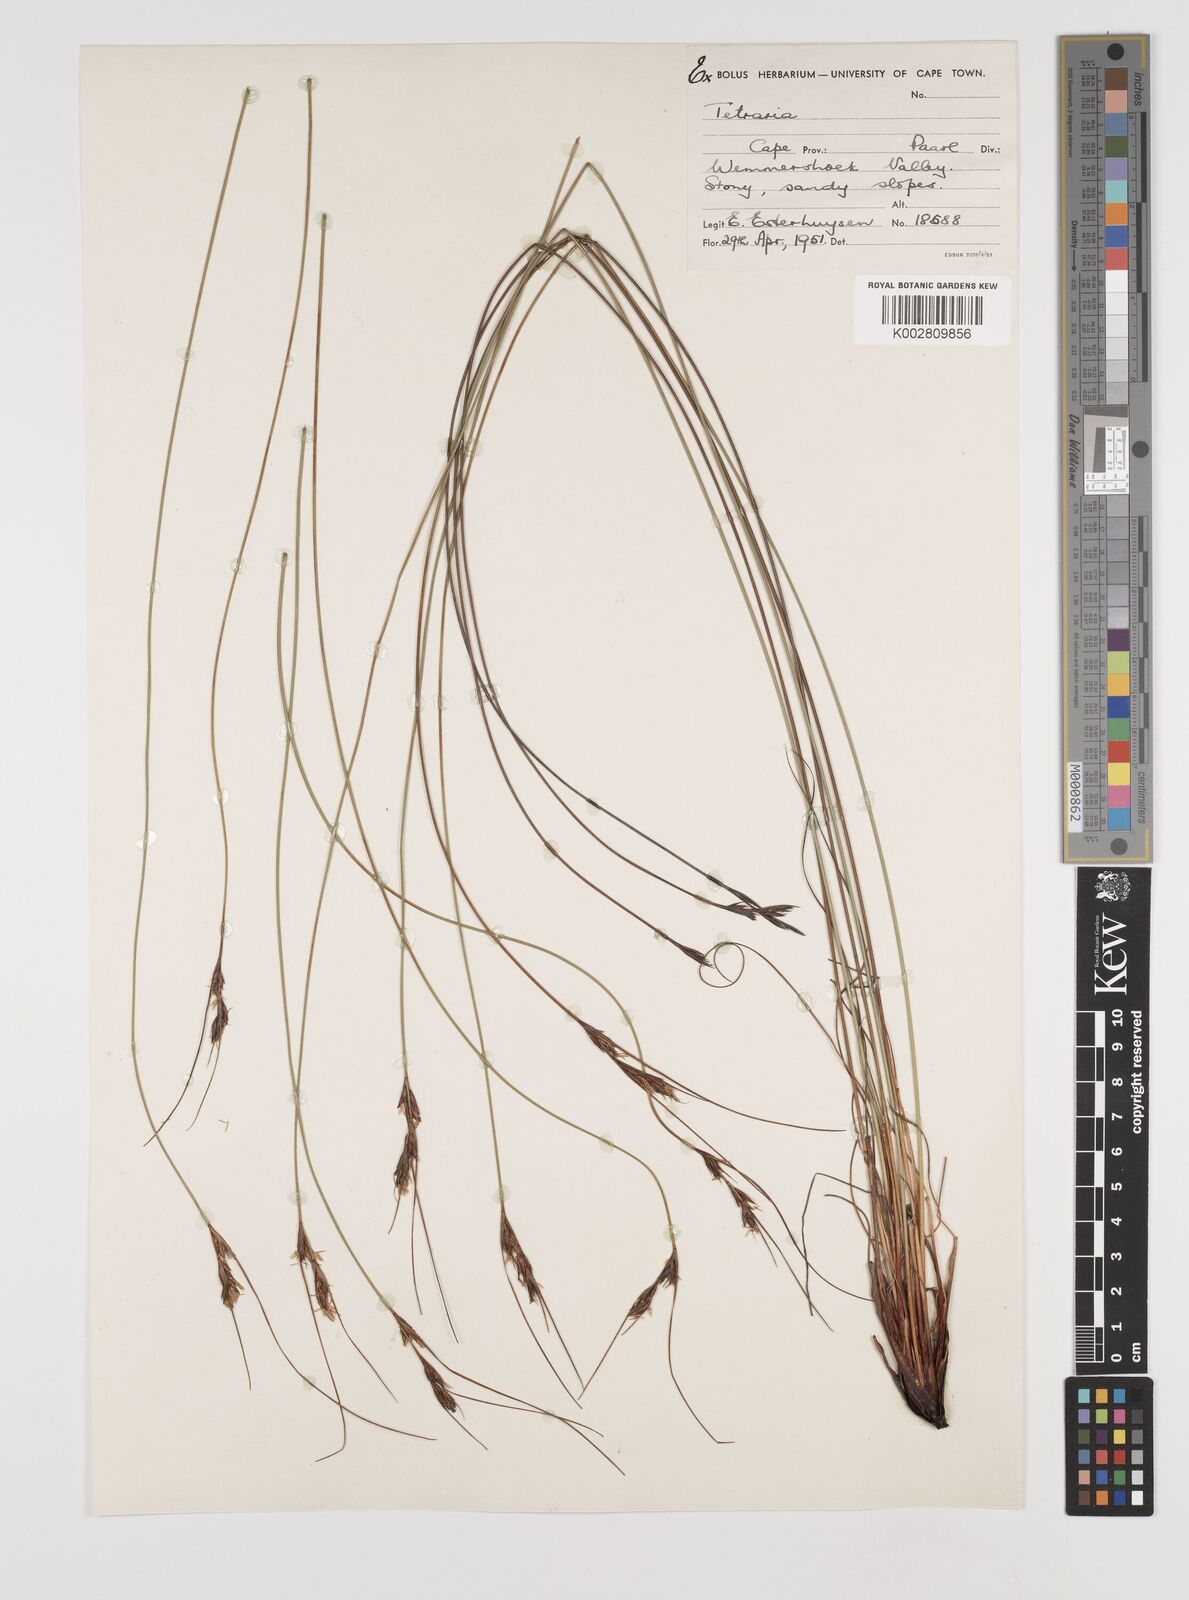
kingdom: Plantae
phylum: Tracheophyta
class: Liliopsida
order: Poales
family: Cyperaceae
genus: Schoenus
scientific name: Schoenus pseudoloreus
